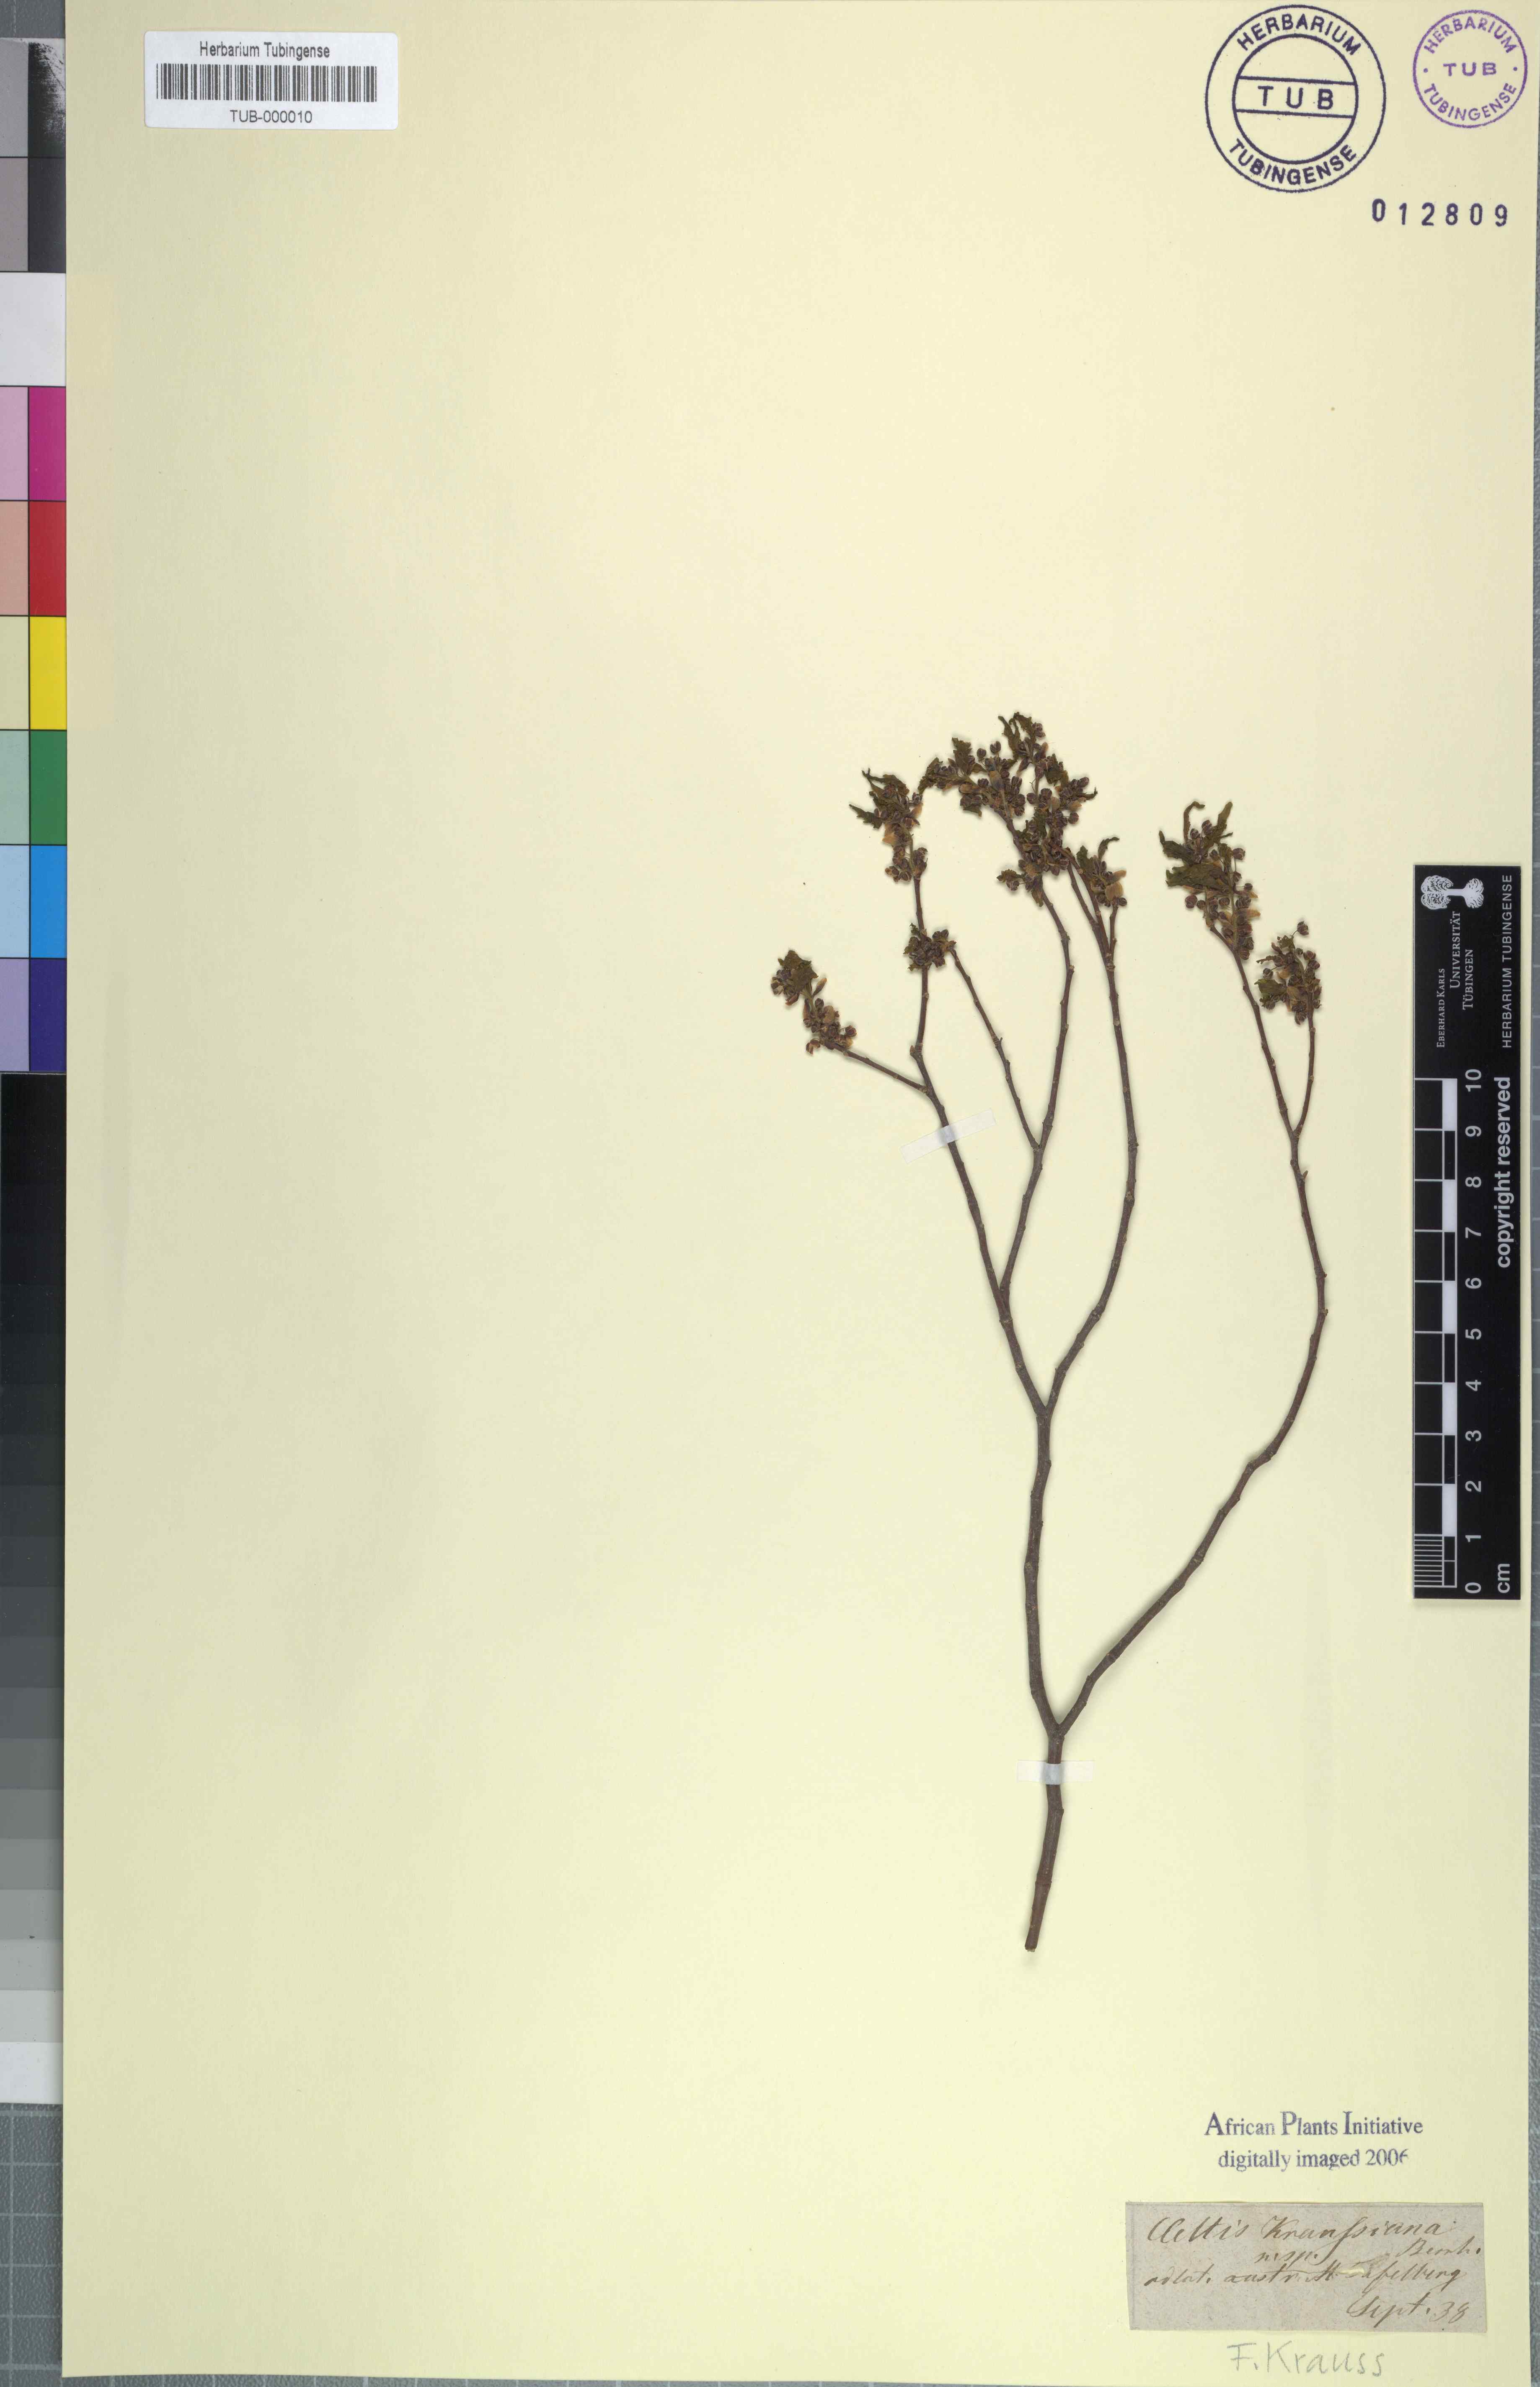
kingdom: Plantae
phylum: Tracheophyta
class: Magnoliopsida
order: Rosales
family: Cannabaceae
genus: Celtis
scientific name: Celtis africana
